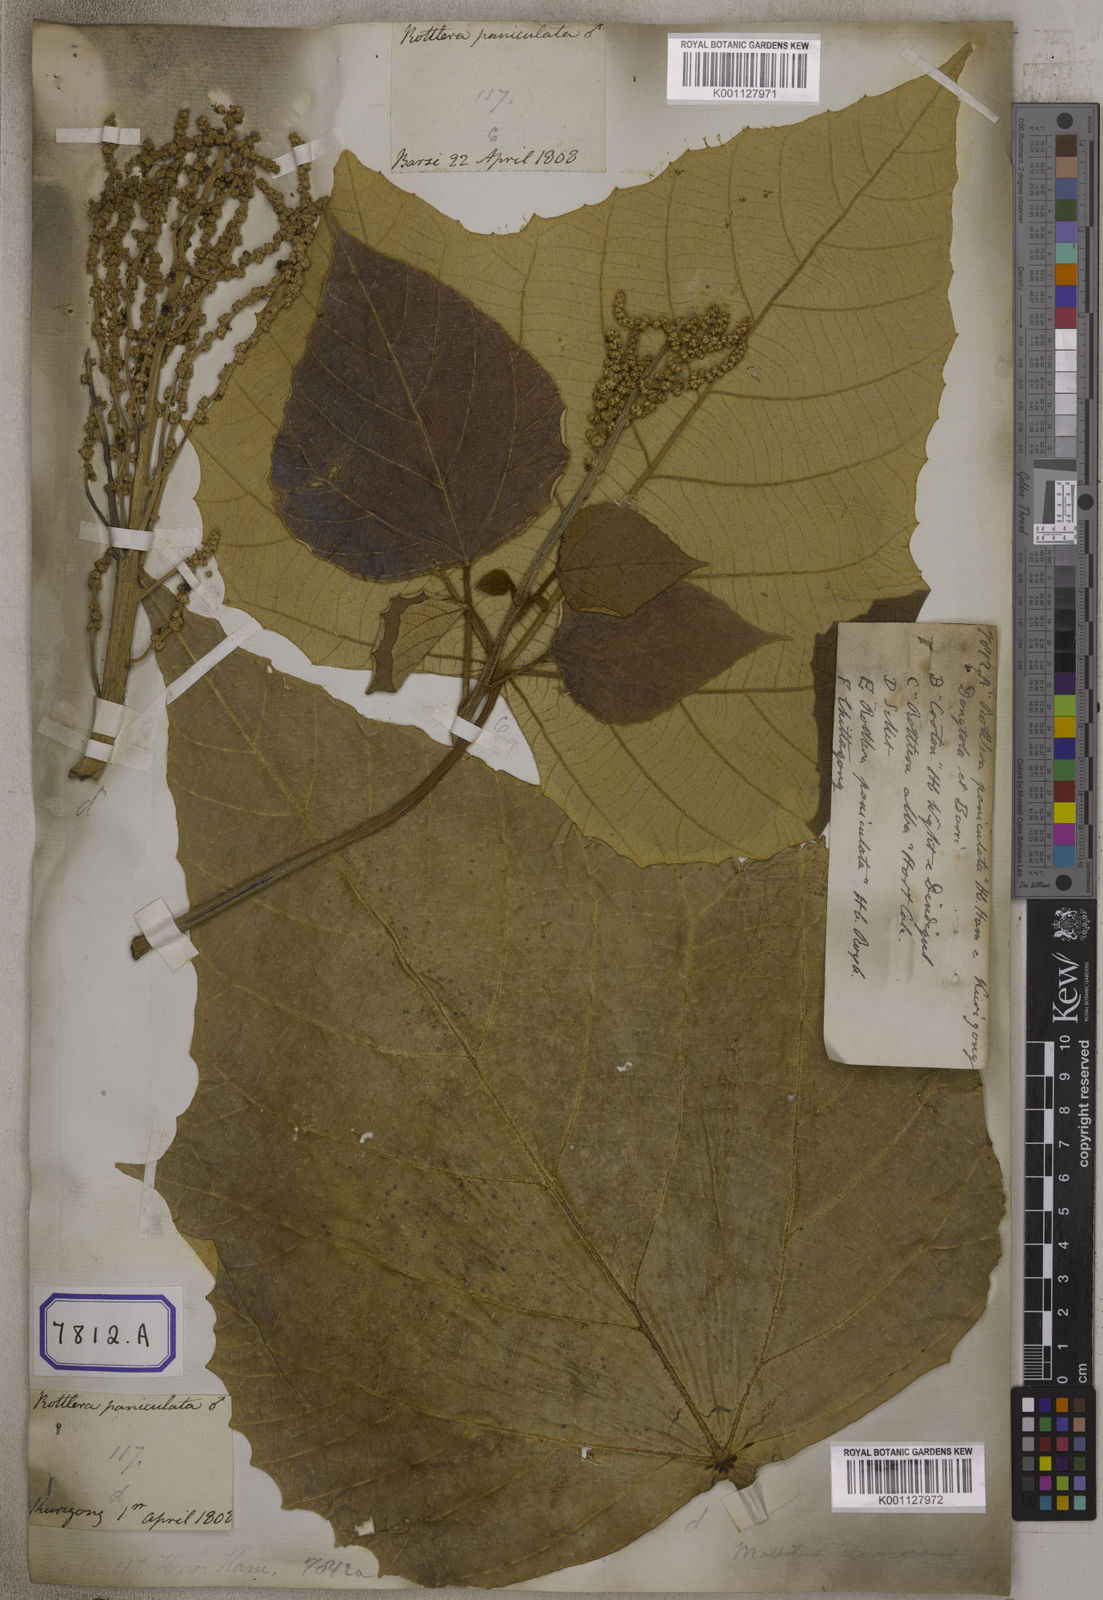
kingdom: Plantae
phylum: Tracheophyta
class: Magnoliopsida
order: Malpighiales
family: Euphorbiaceae
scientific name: Euphorbiaceae
